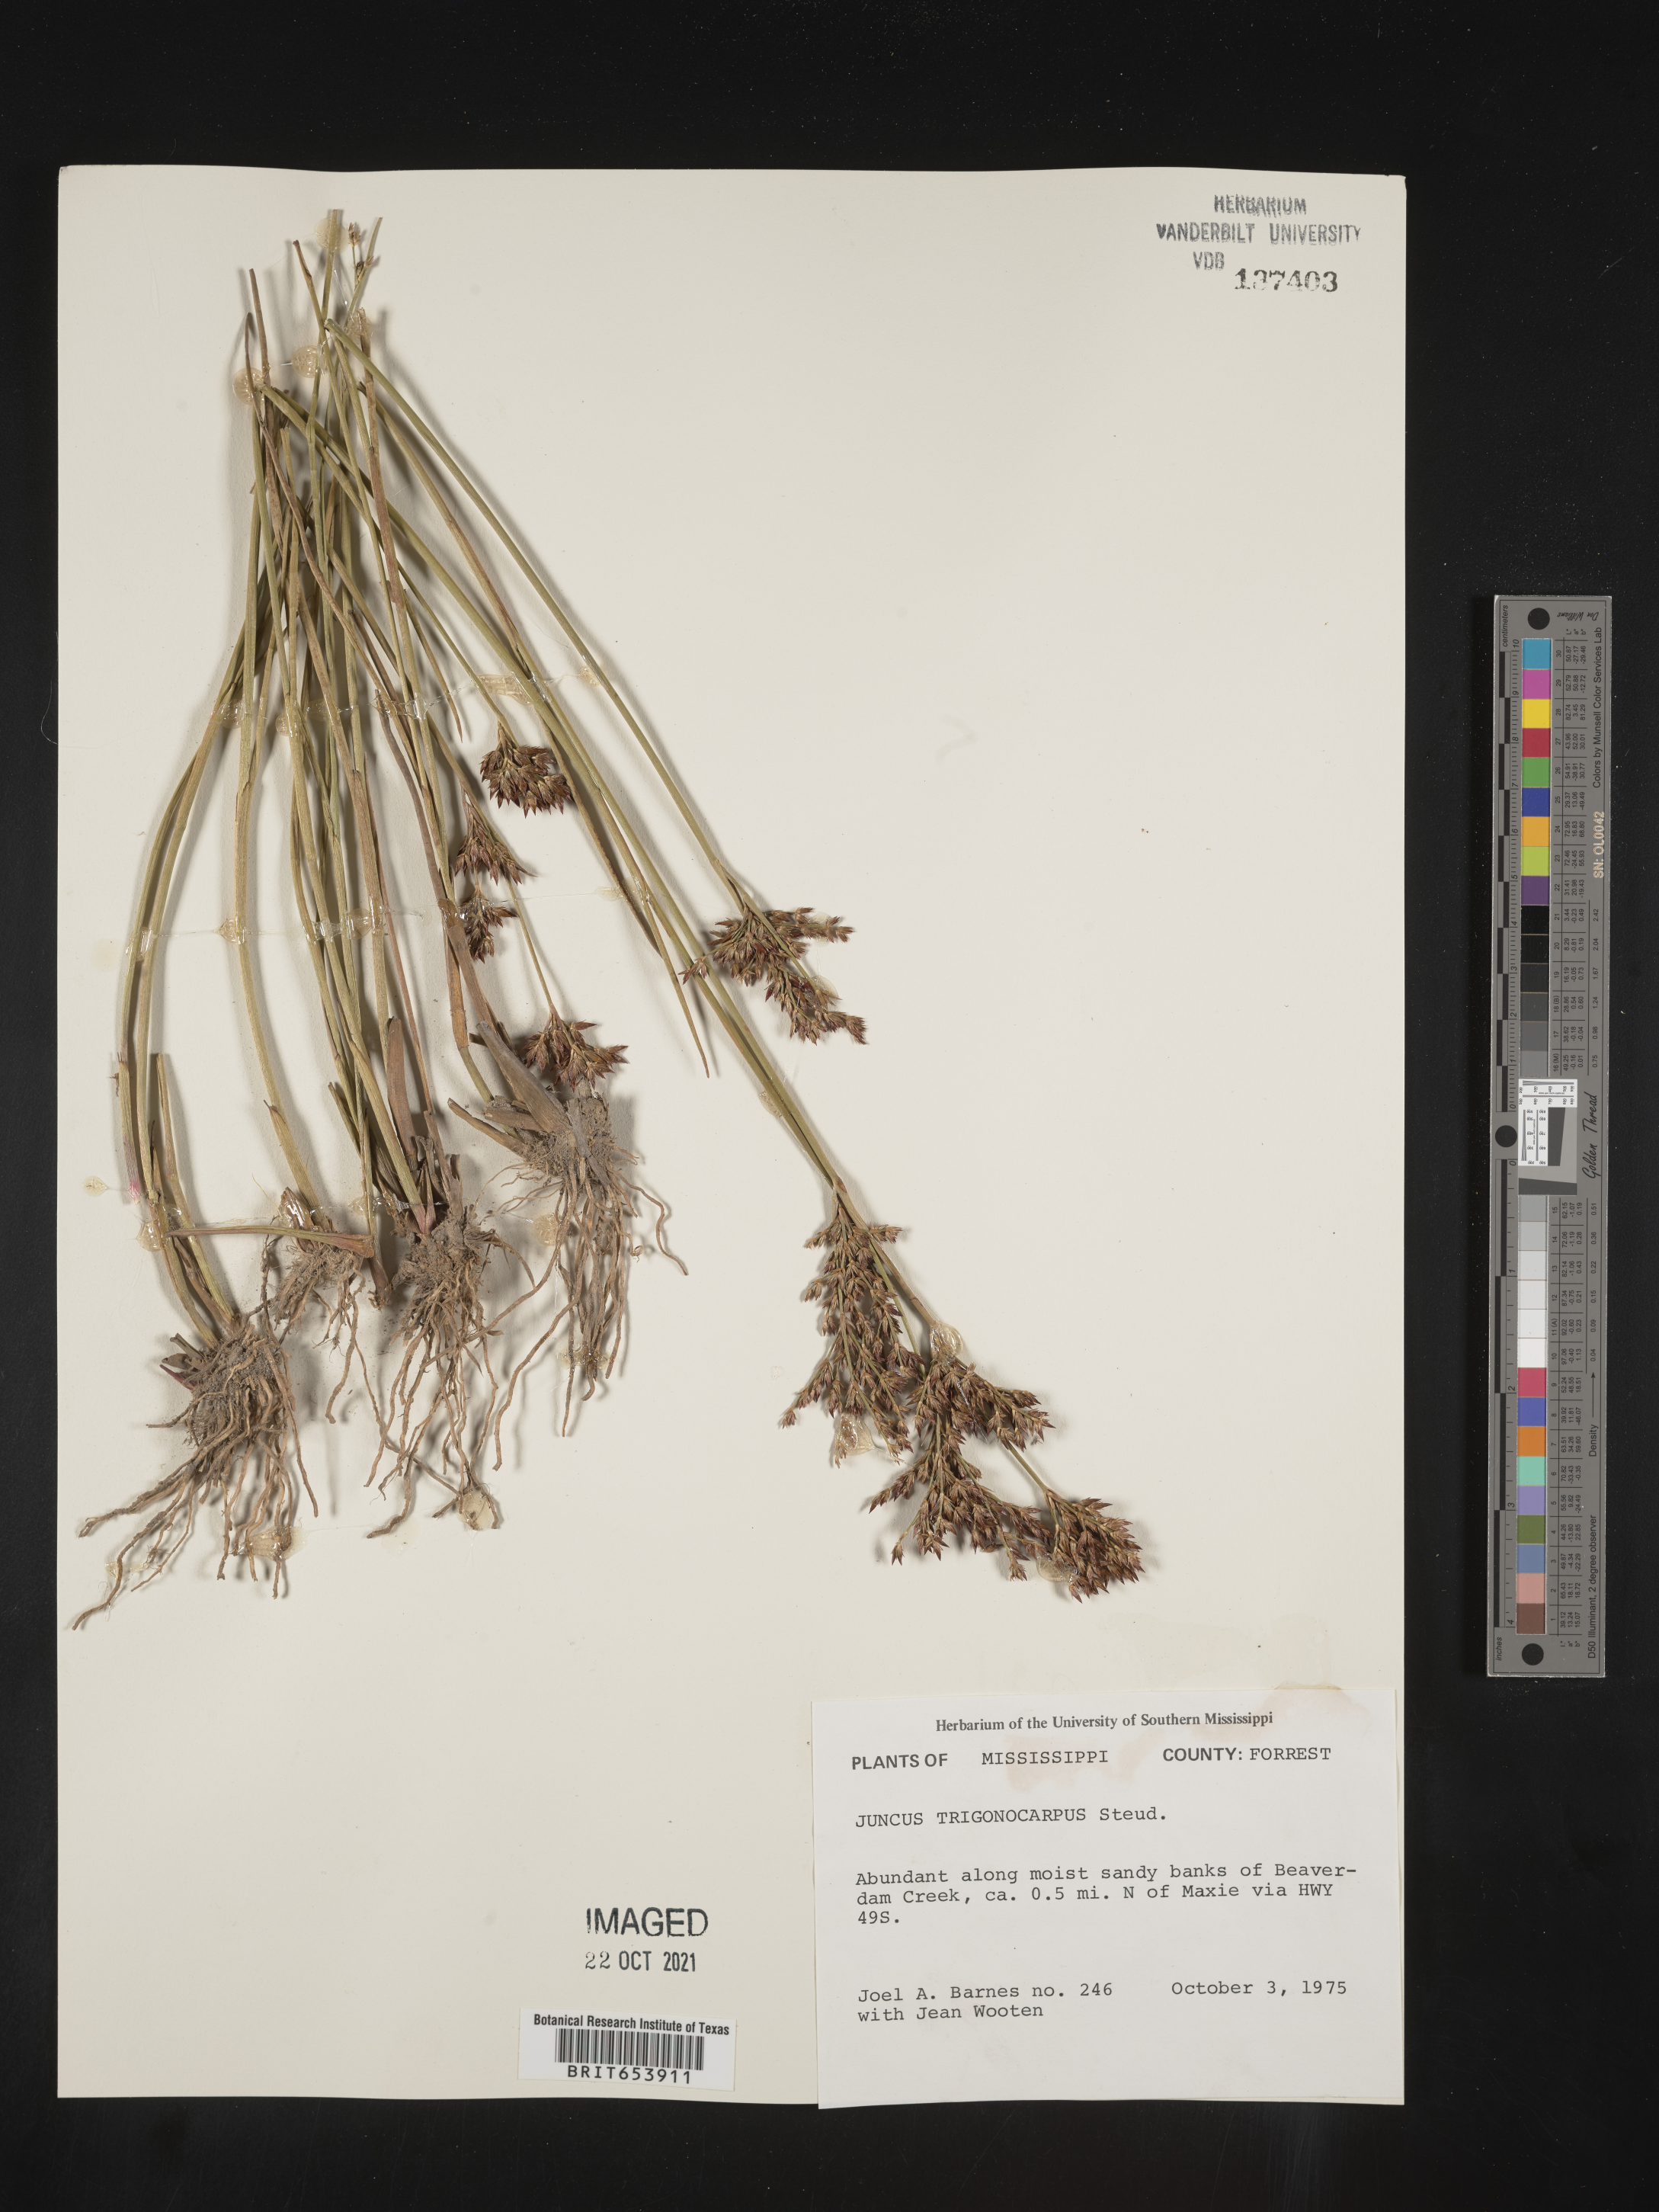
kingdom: Plantae
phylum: Tracheophyta
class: Liliopsida
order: Poales
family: Juncaceae
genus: Juncus
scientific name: Juncus trigonocarpus
